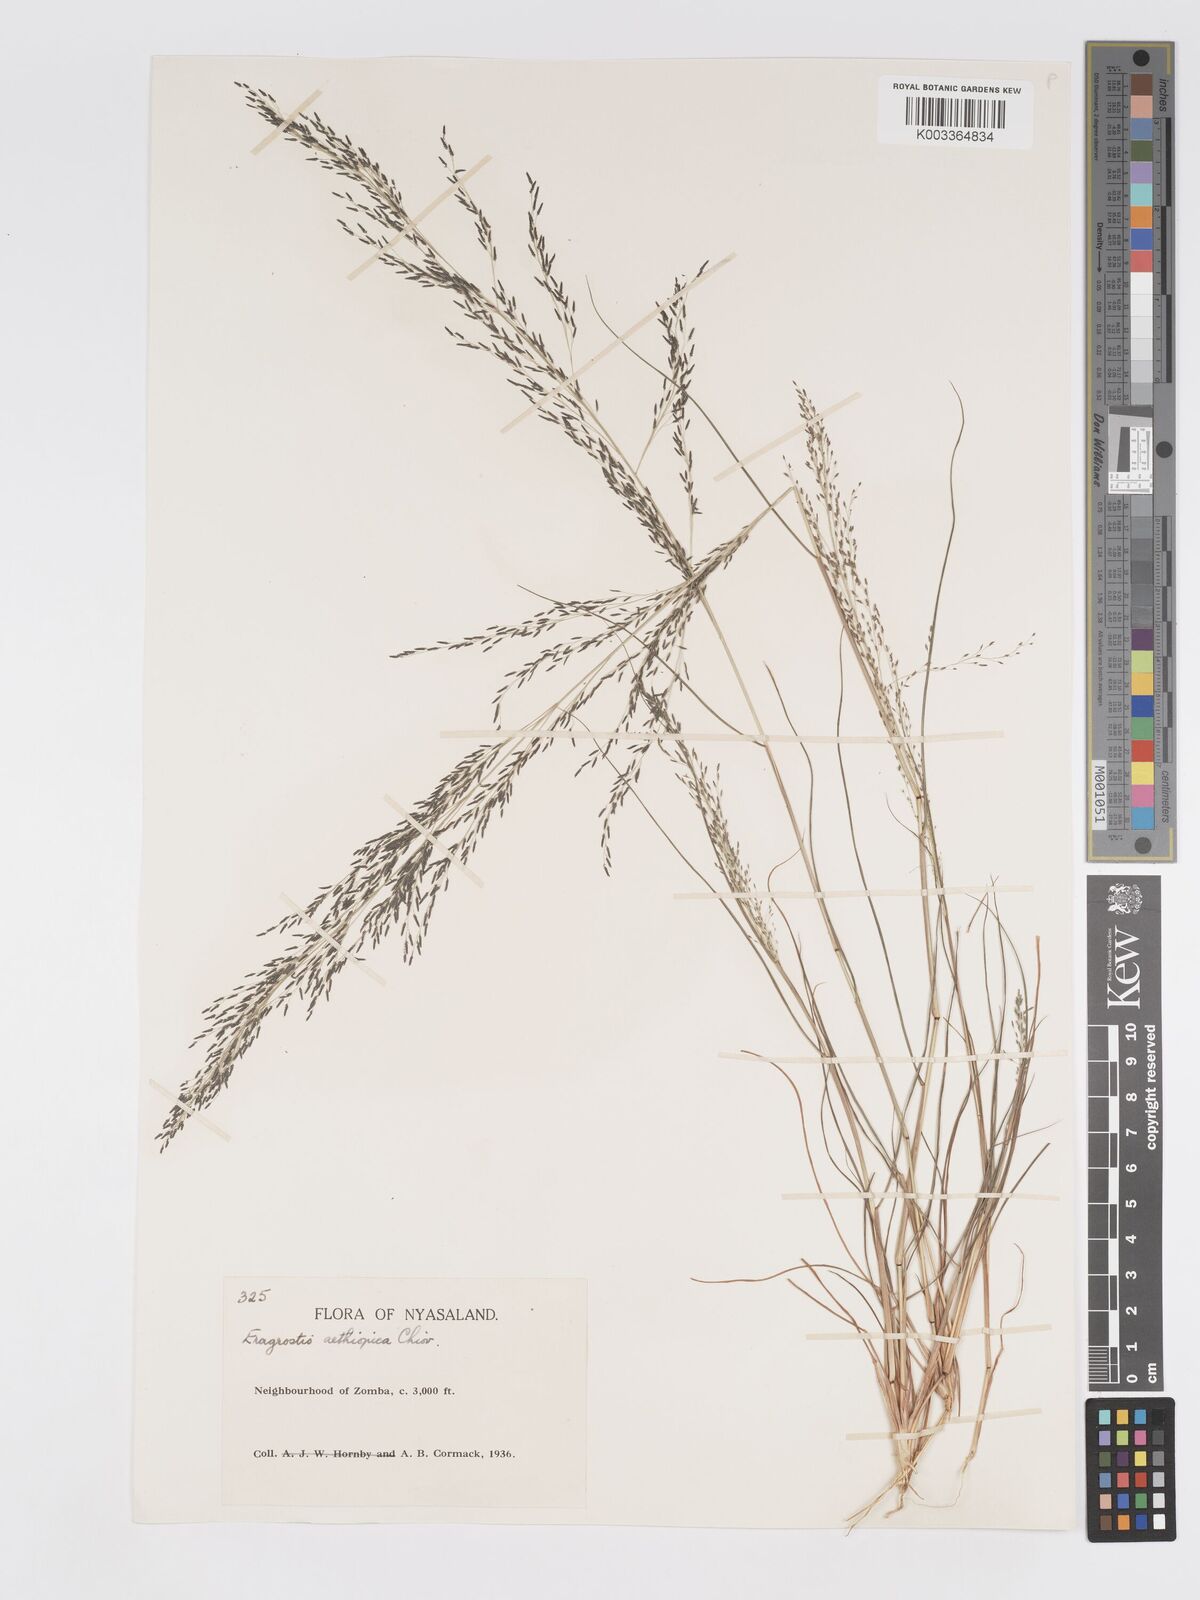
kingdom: Plantae
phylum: Tracheophyta
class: Liliopsida
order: Poales
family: Poaceae
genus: Eragrostis
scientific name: Eragrostis aethiopica
